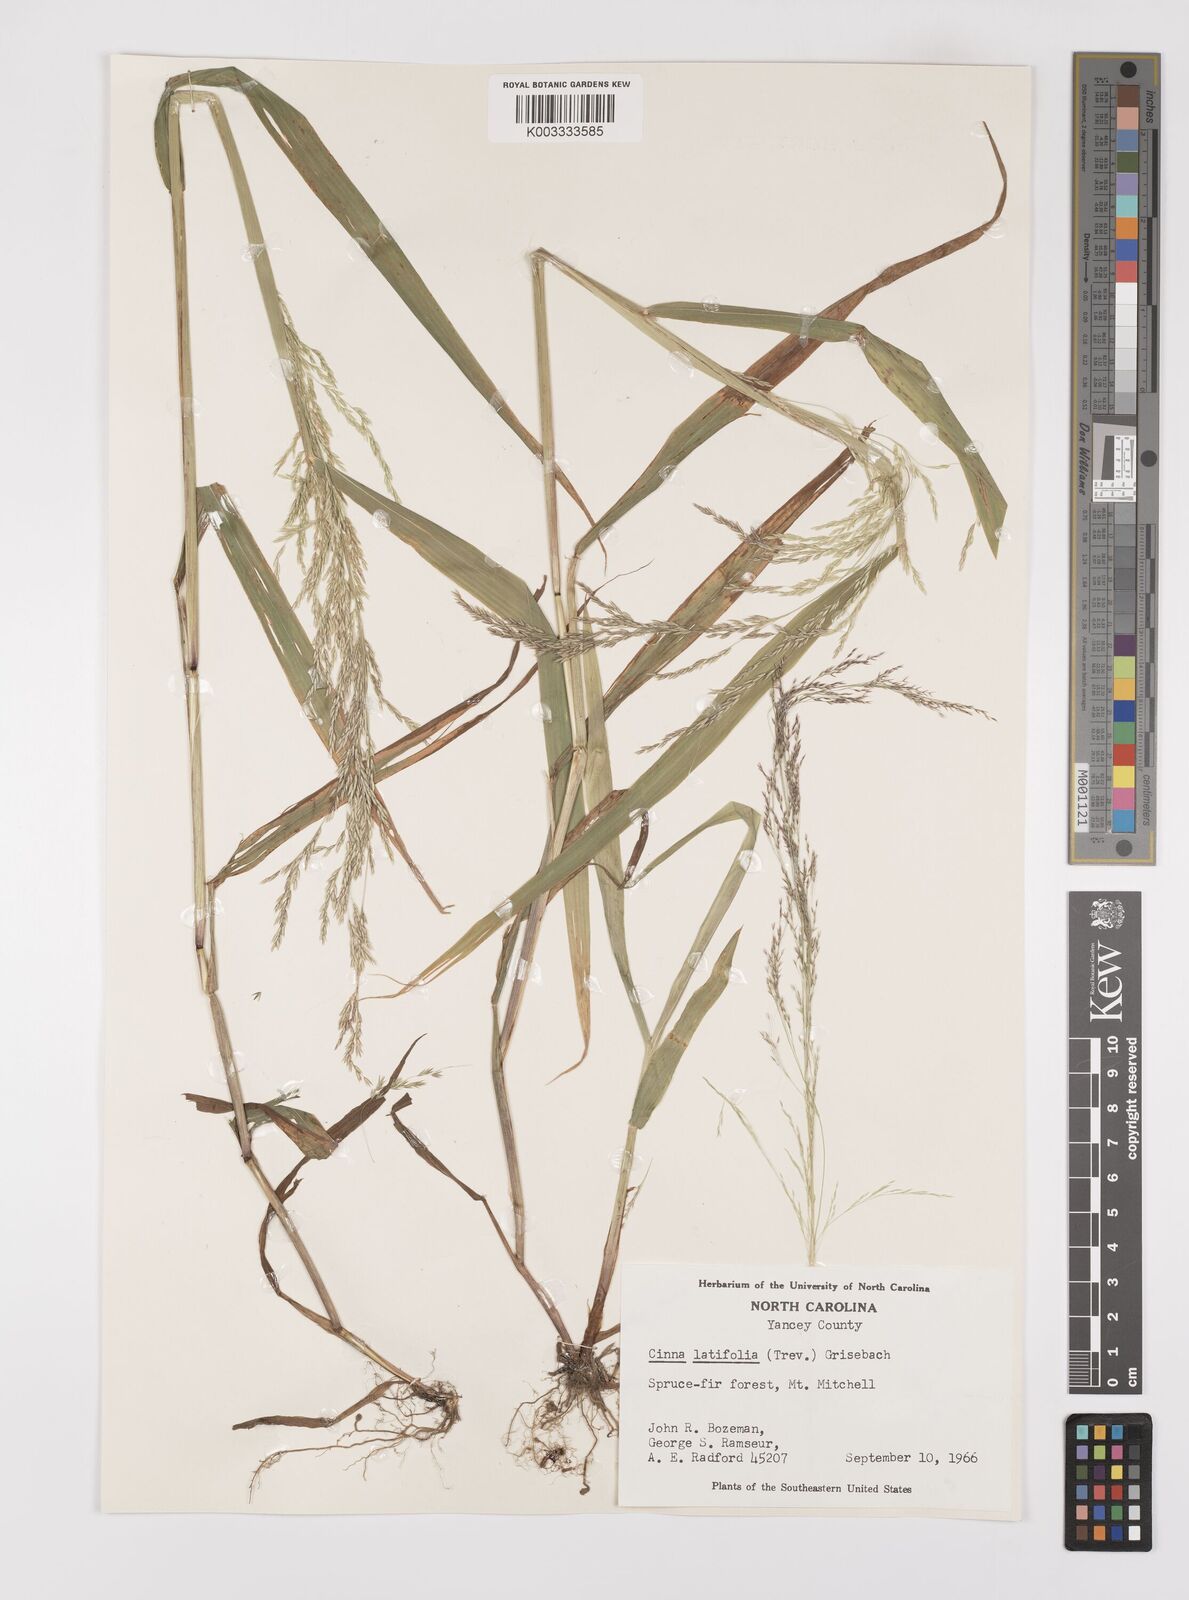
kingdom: Plantae
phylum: Tracheophyta
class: Liliopsida
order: Poales
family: Poaceae
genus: Cinna
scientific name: Cinna latifolia
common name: Drooping woodreed
